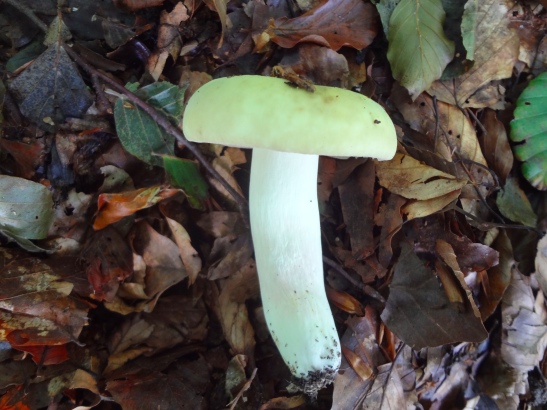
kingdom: Fungi
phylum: Basidiomycota
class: Agaricomycetes
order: Russulales
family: Russulaceae
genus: Russula
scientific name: Russula violeipes
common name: ferskengul skørhat
